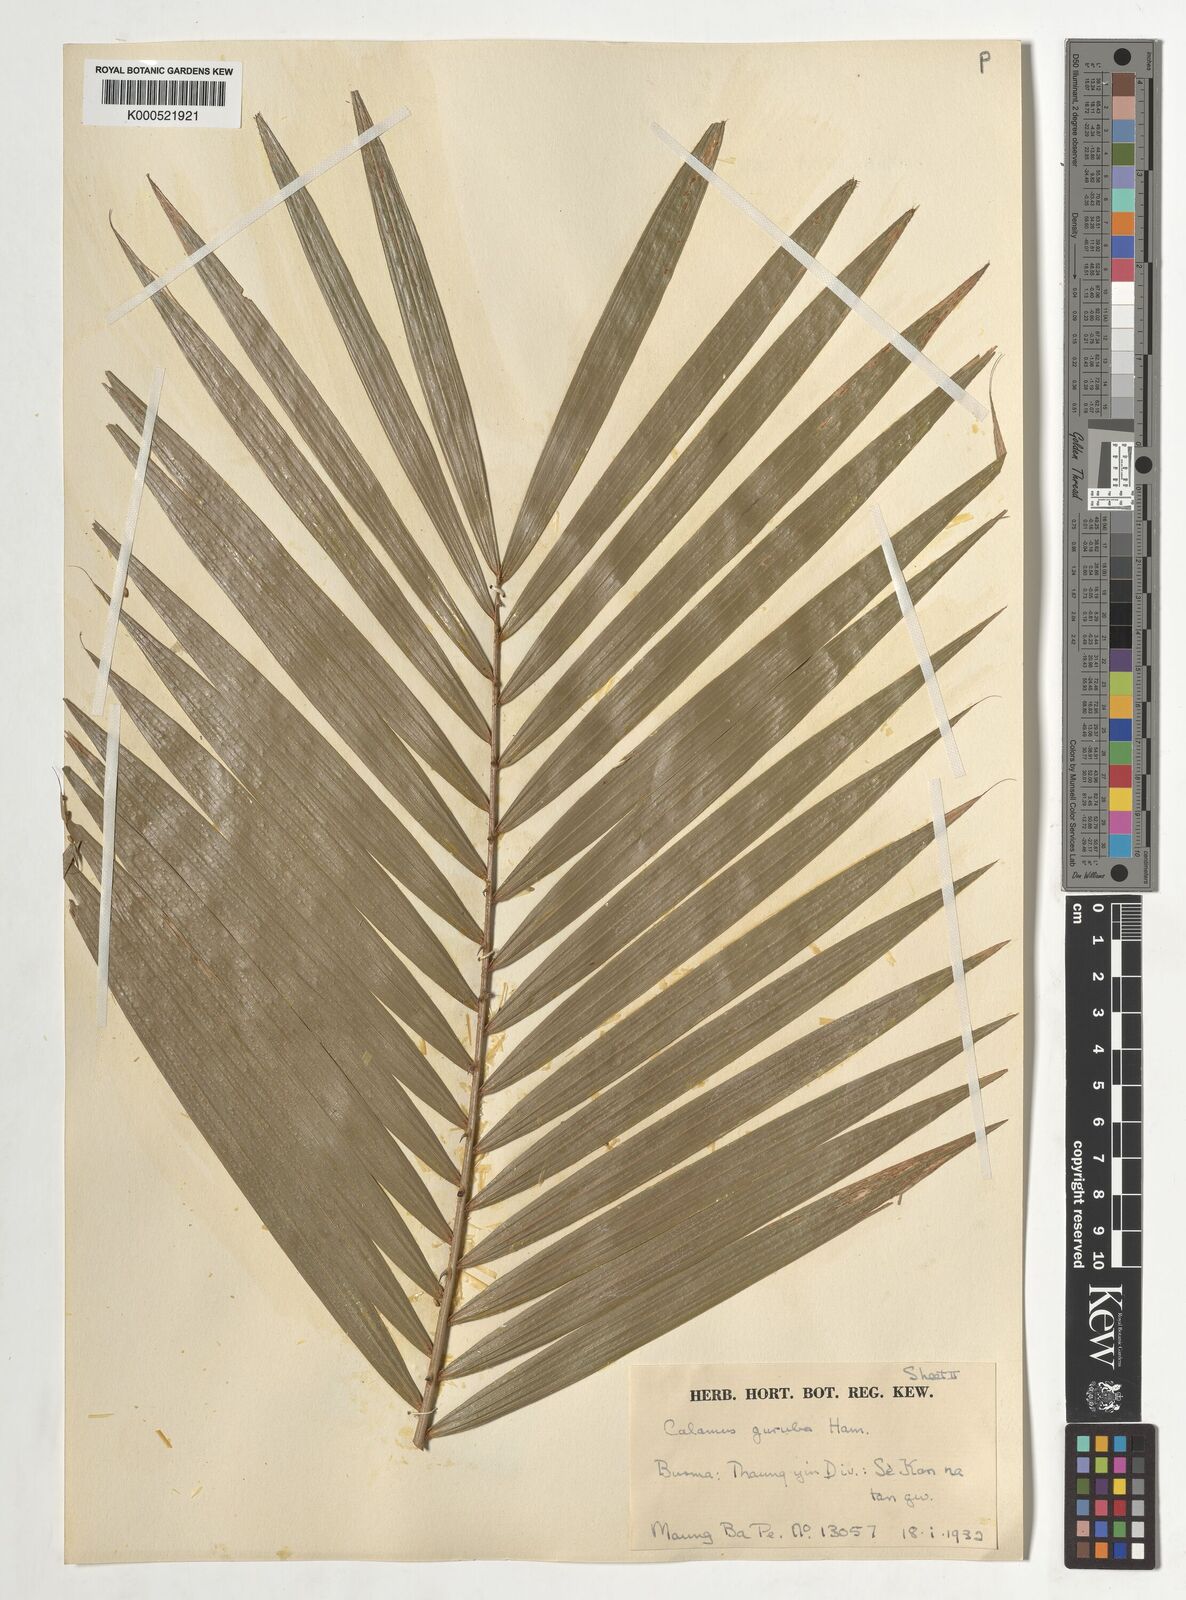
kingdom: Plantae
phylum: Tracheophyta
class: Liliopsida
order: Arecales
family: Arecaceae
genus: Calamus
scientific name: Calamus
